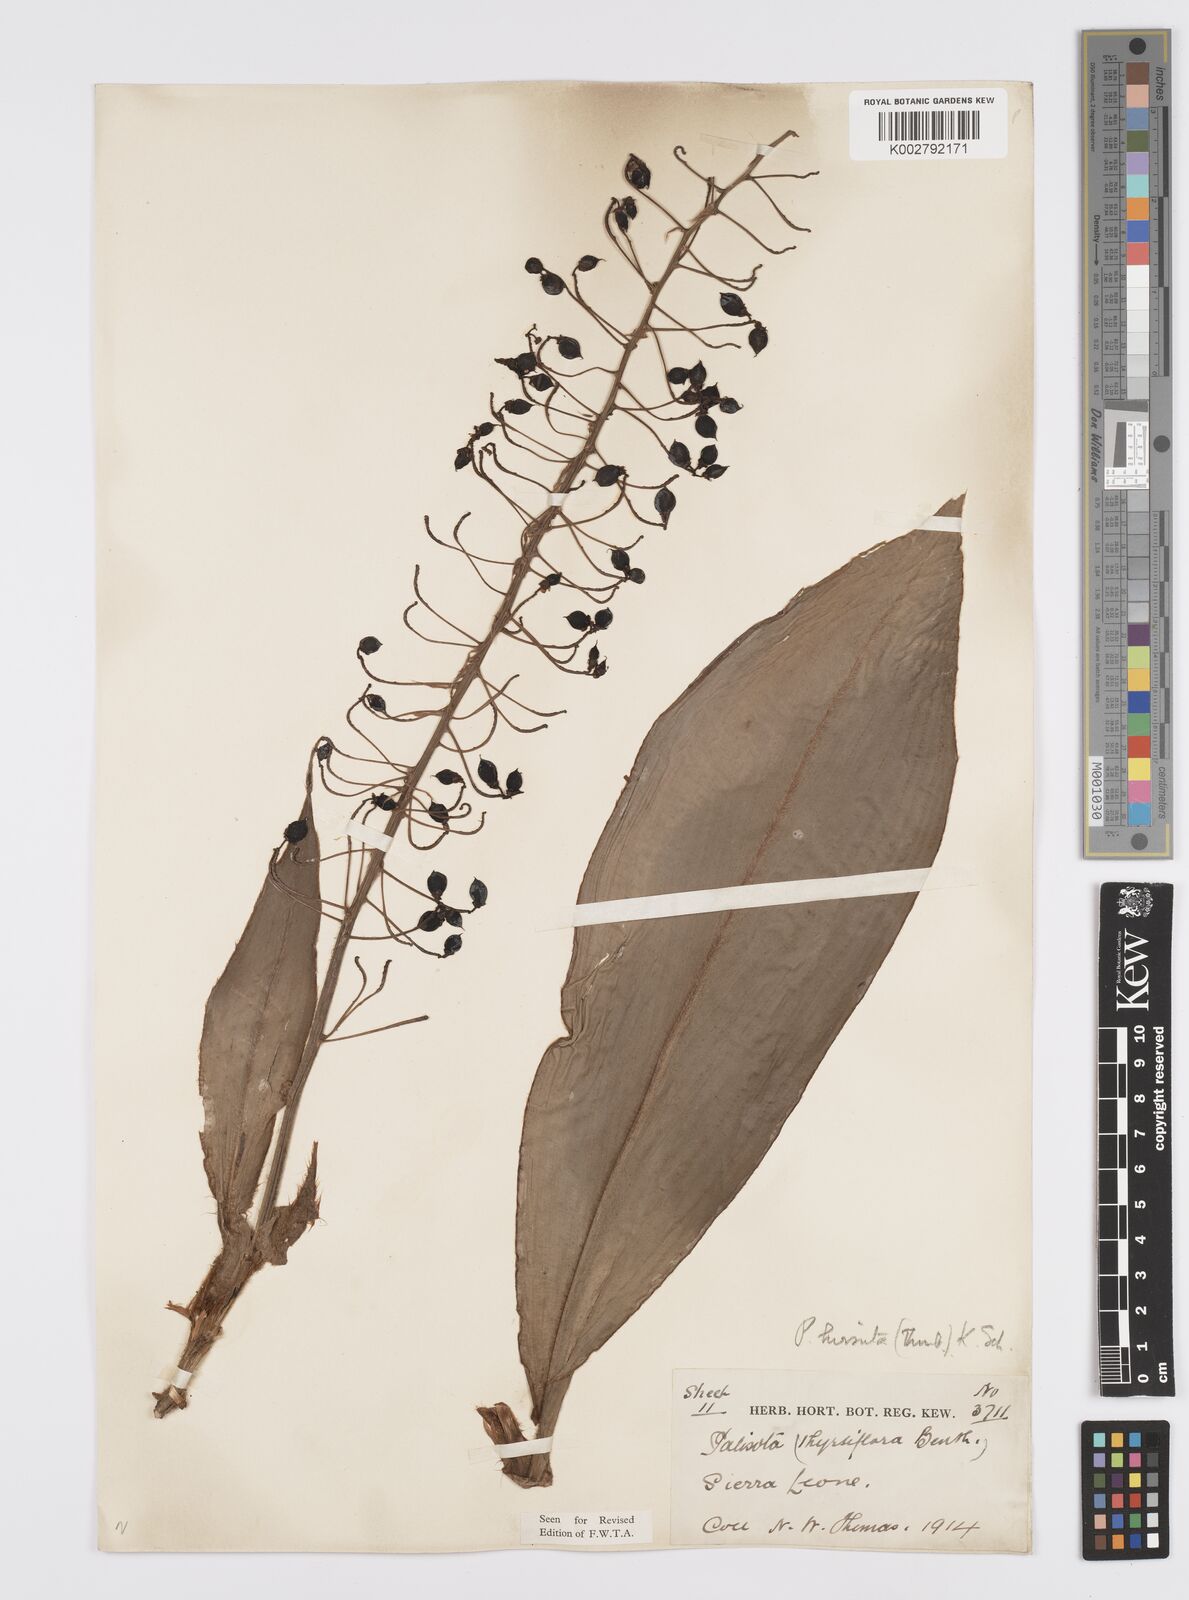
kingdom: Plantae
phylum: Tracheophyta
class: Liliopsida
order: Commelinales
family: Commelinaceae
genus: Palisota
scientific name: Palisota hirsuta
